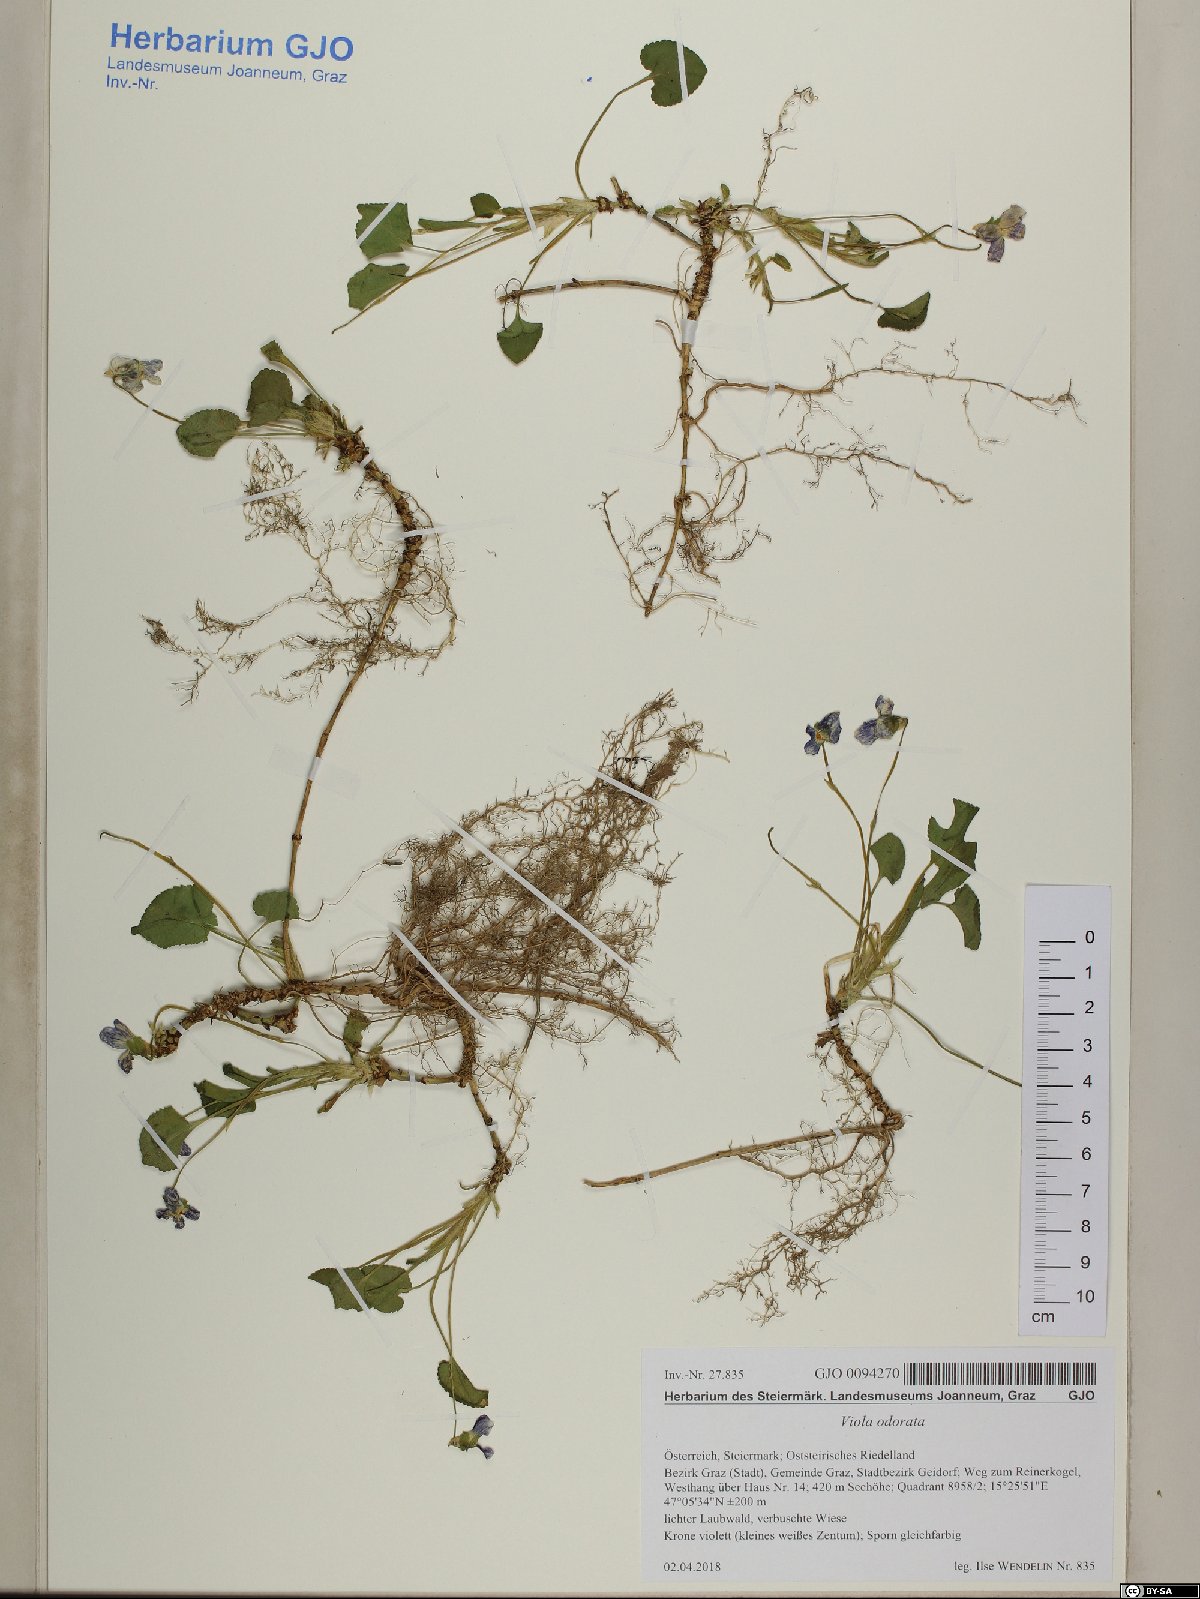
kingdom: Plantae
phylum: Tracheophyta
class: Magnoliopsida
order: Malpighiales
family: Violaceae
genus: Viola
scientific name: Viola odorata
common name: Sweet violet
